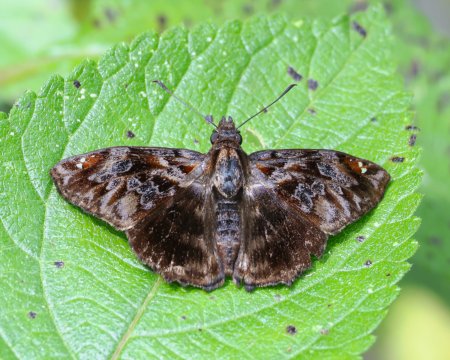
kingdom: Animalia
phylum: Arthropoda
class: Insecta
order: Lepidoptera
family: Hesperiidae
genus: Noctuana
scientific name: Noctuana stator
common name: Red-studded Skipper
